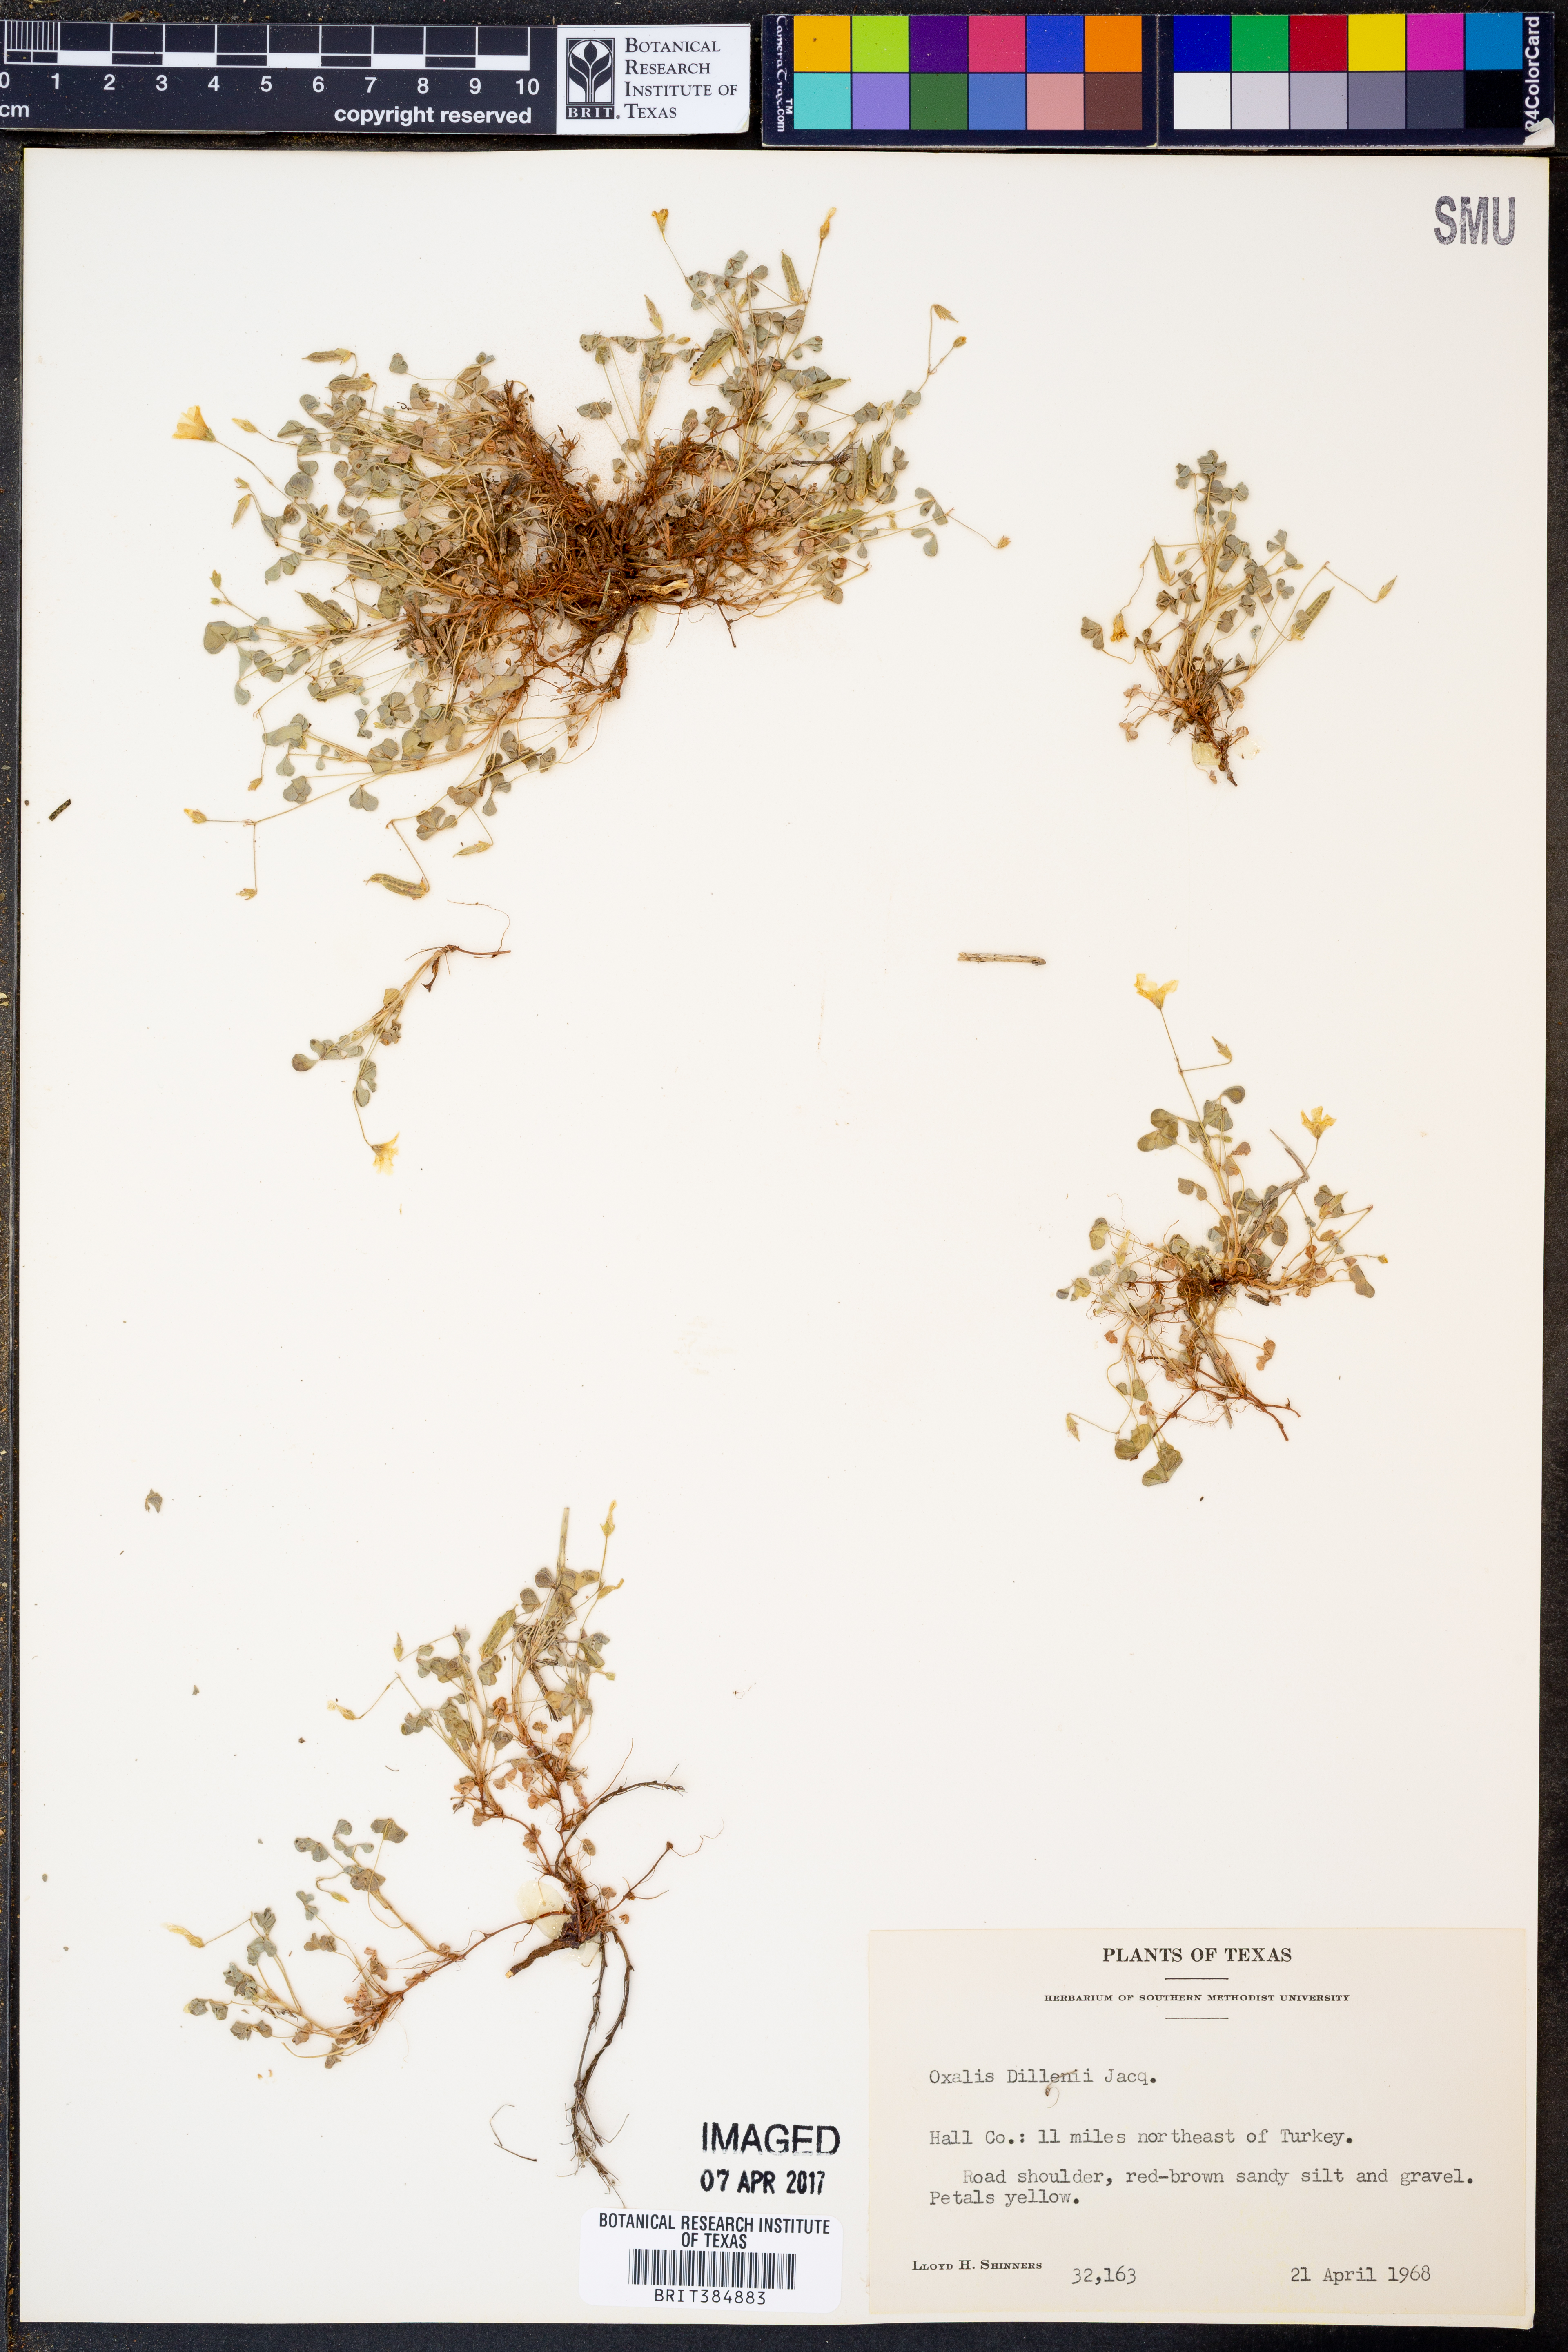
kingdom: Plantae
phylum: Tracheophyta
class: Magnoliopsida
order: Oxalidales
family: Oxalidaceae
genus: Oxalis
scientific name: Oxalis dillenii
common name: Sussex yellow-sorrel
